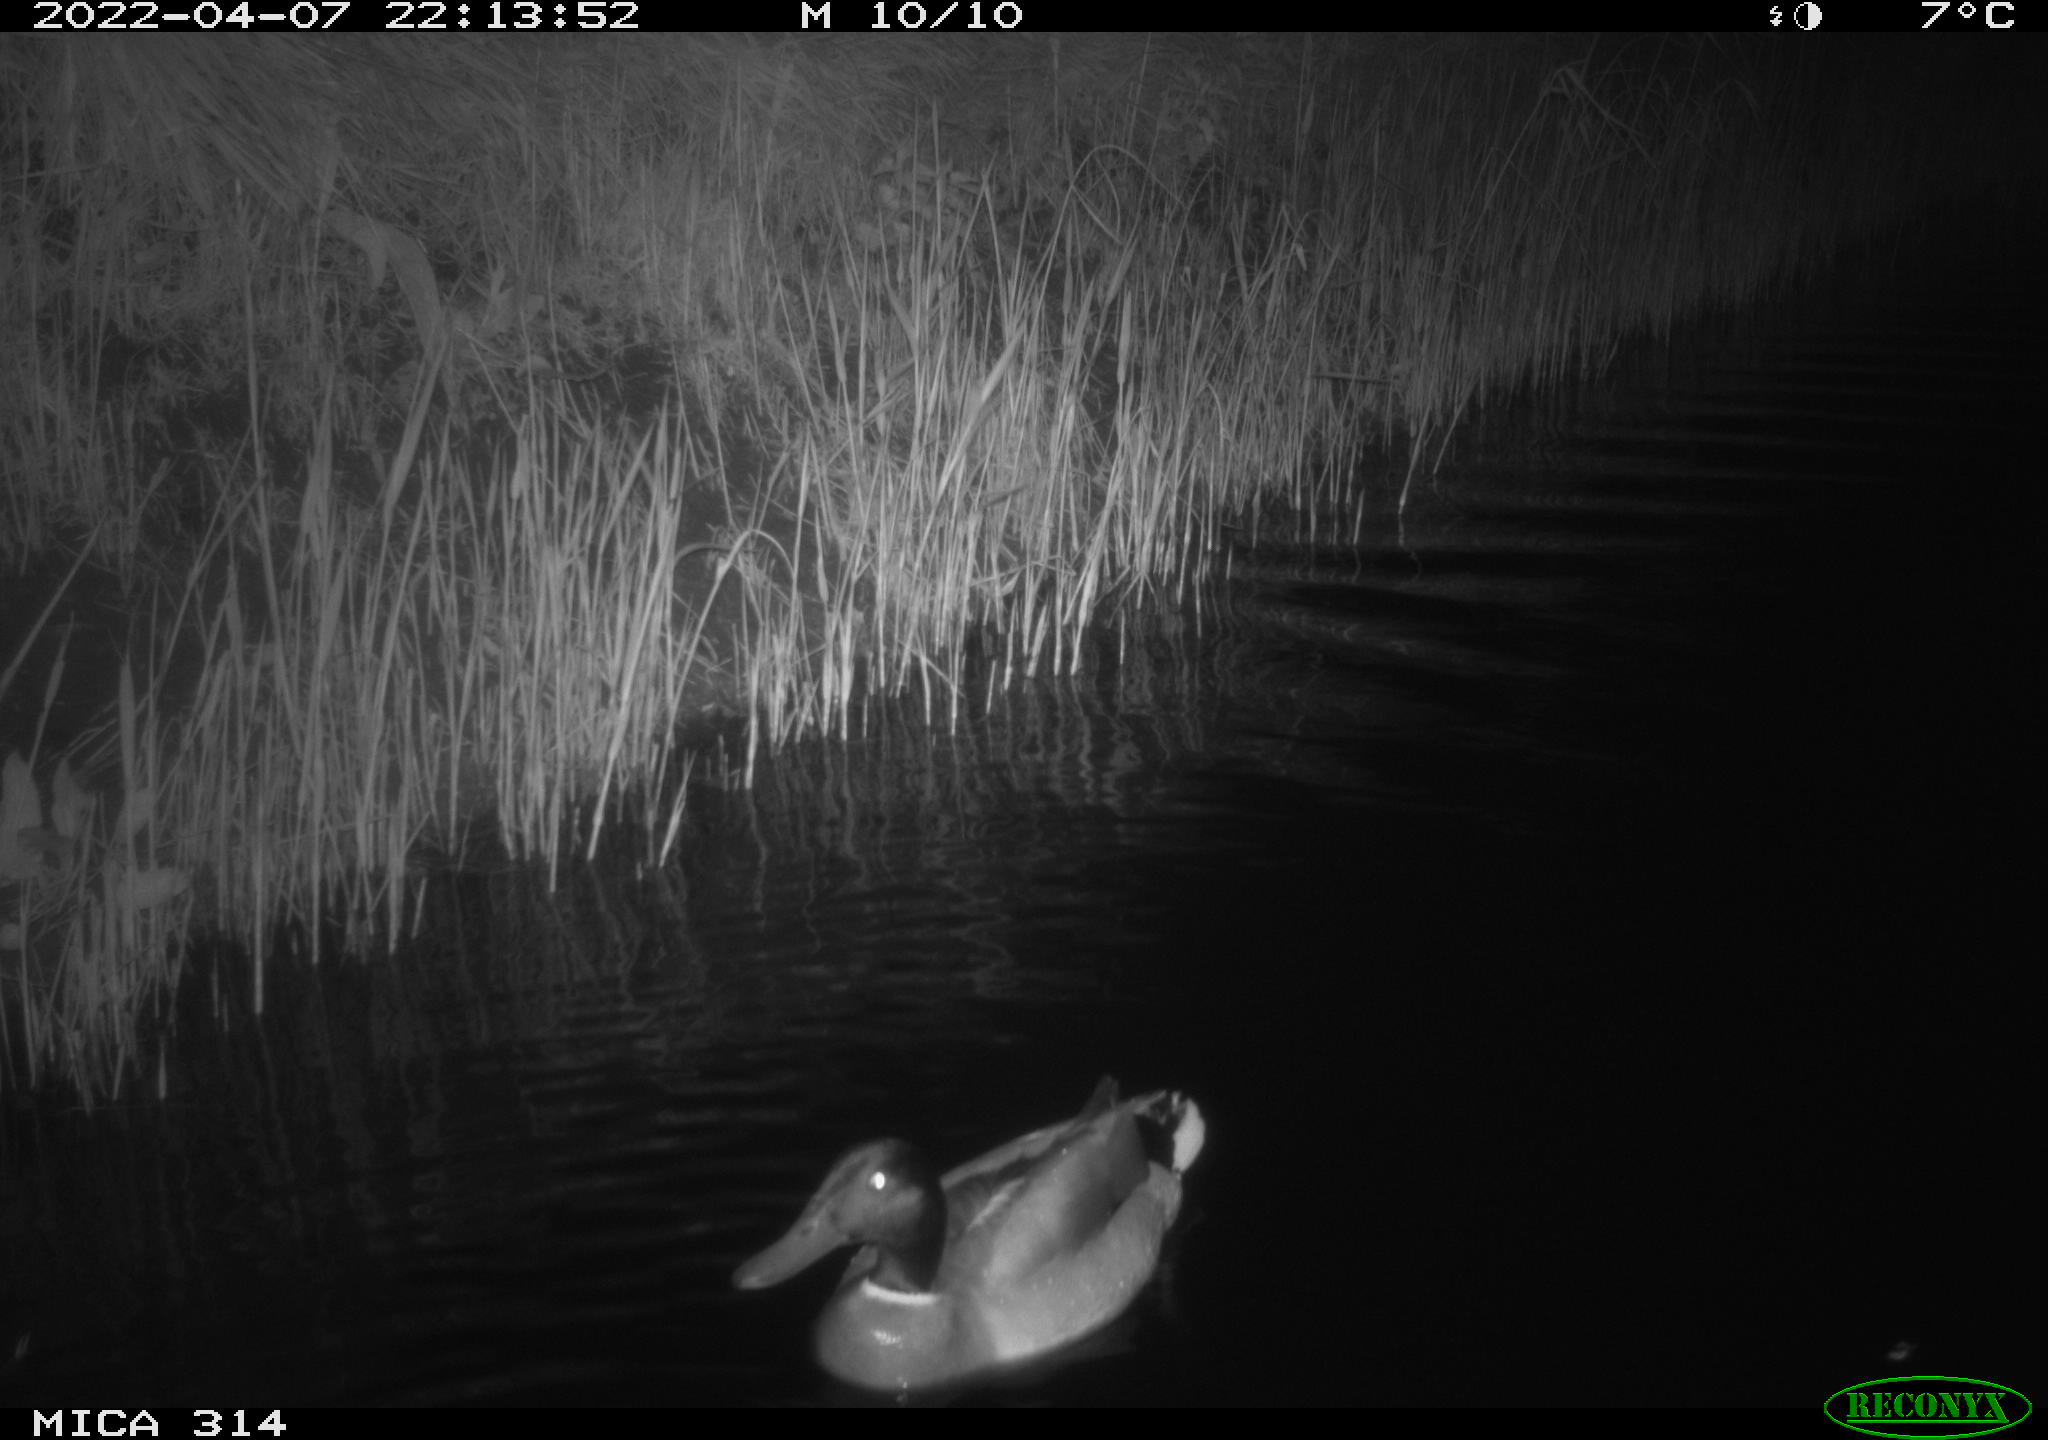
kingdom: Animalia
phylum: Chordata
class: Aves
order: Anseriformes
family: Anatidae
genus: Anas
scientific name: Anas platyrhynchos
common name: Mallard
